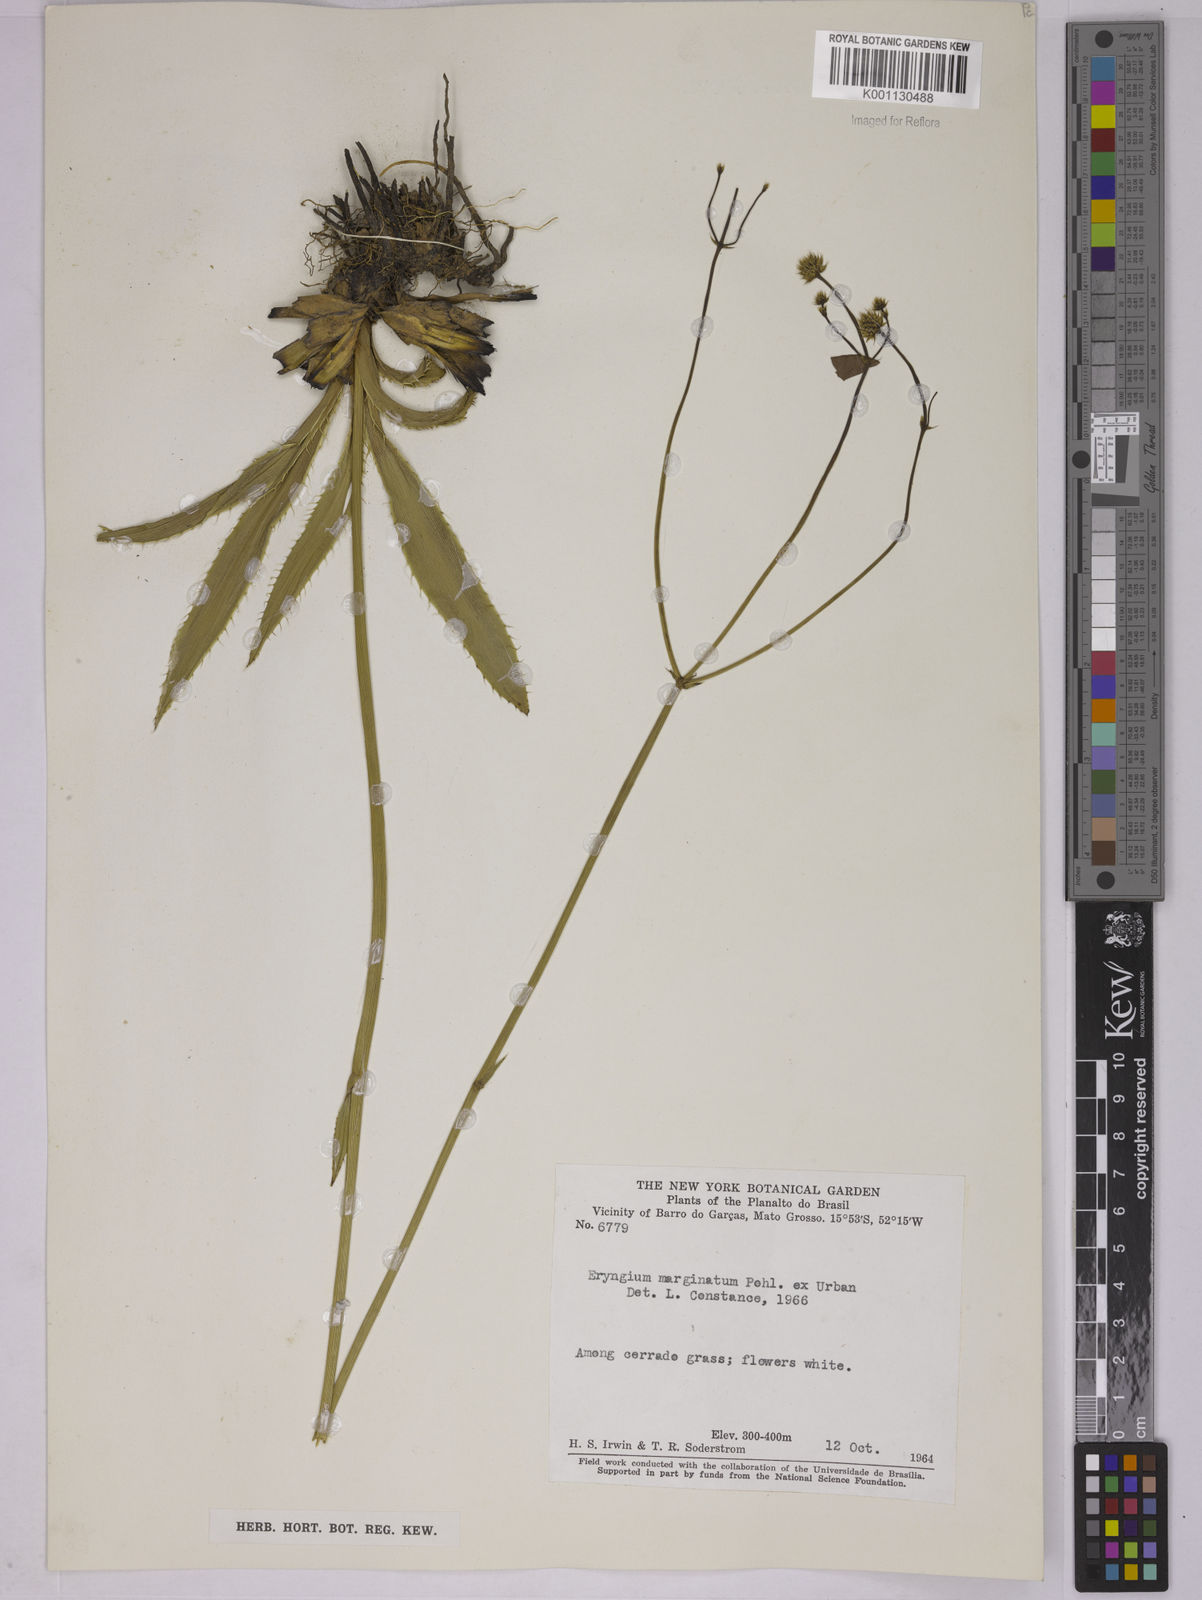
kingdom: Plantae
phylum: Tracheophyta
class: Magnoliopsida
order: Apiales
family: Apiaceae
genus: Eryngium
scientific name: Eryngium marginatum
